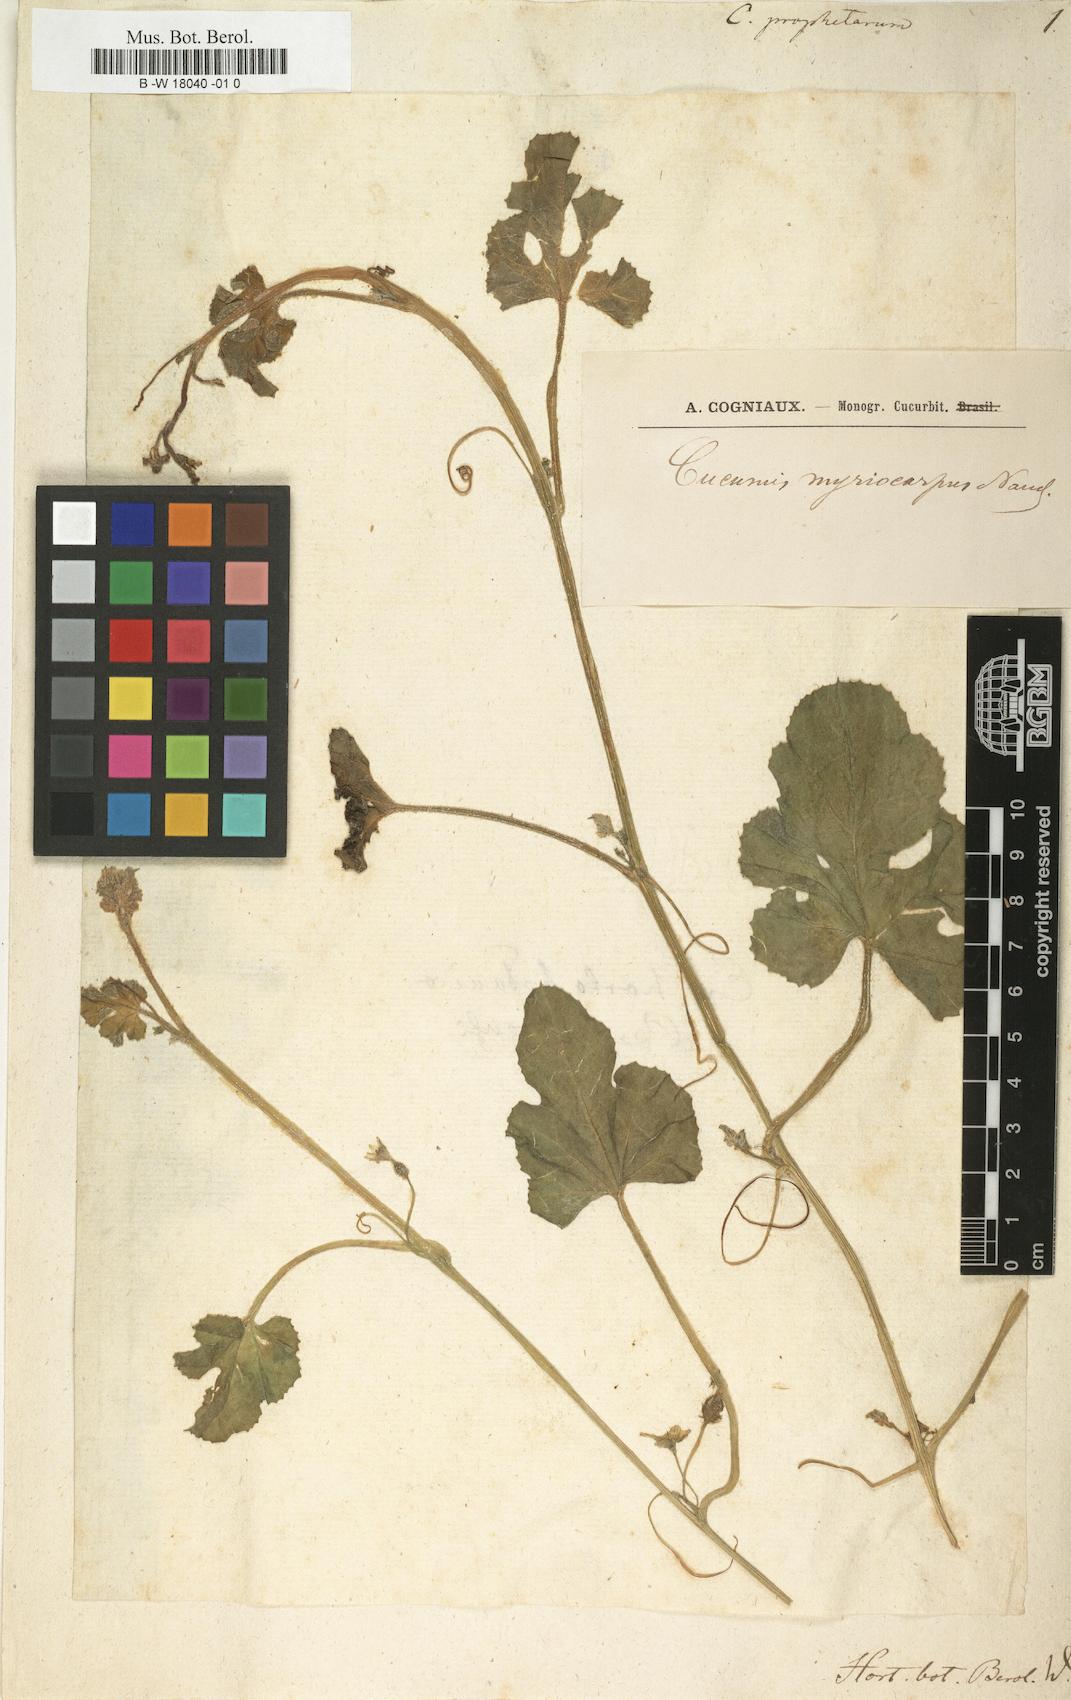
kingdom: Plantae
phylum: Tracheophyta
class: Magnoliopsida
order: Cucurbitales
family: Cucurbitaceae
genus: Cucumis
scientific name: Cucumis prophetarum
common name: Wild cucumber
